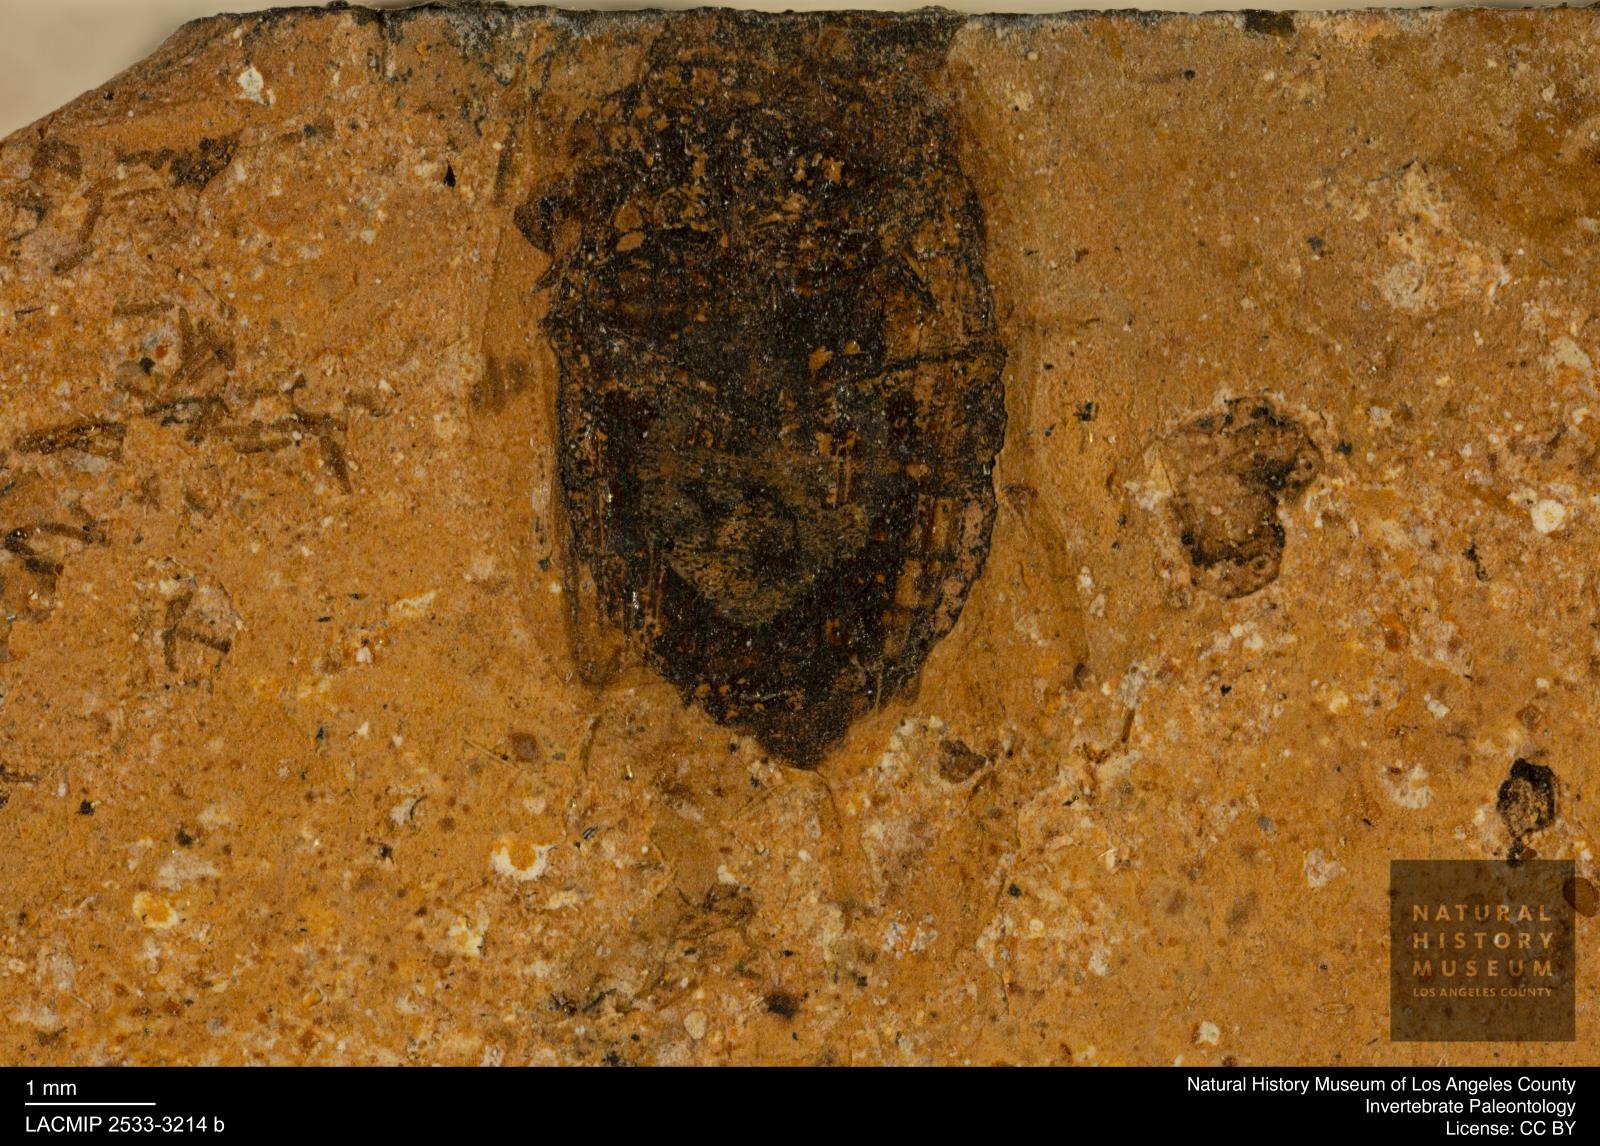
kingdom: Animalia
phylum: Arthropoda
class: Insecta
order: Coleoptera
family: Hydrophilidae
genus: Berosus
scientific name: Berosus morticinus
